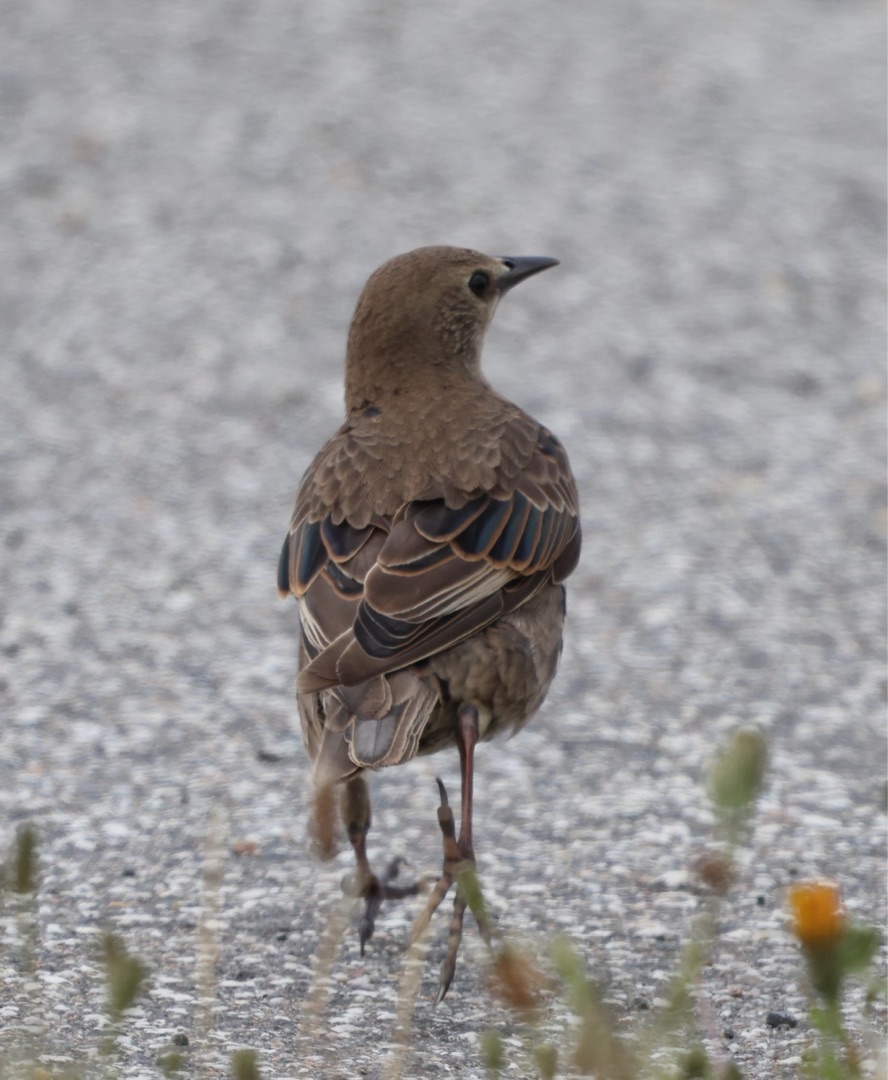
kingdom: Animalia
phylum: Chordata
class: Aves
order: Passeriformes
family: Sturnidae
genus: Sturnus
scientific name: Sturnus vulgaris
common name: Stær
